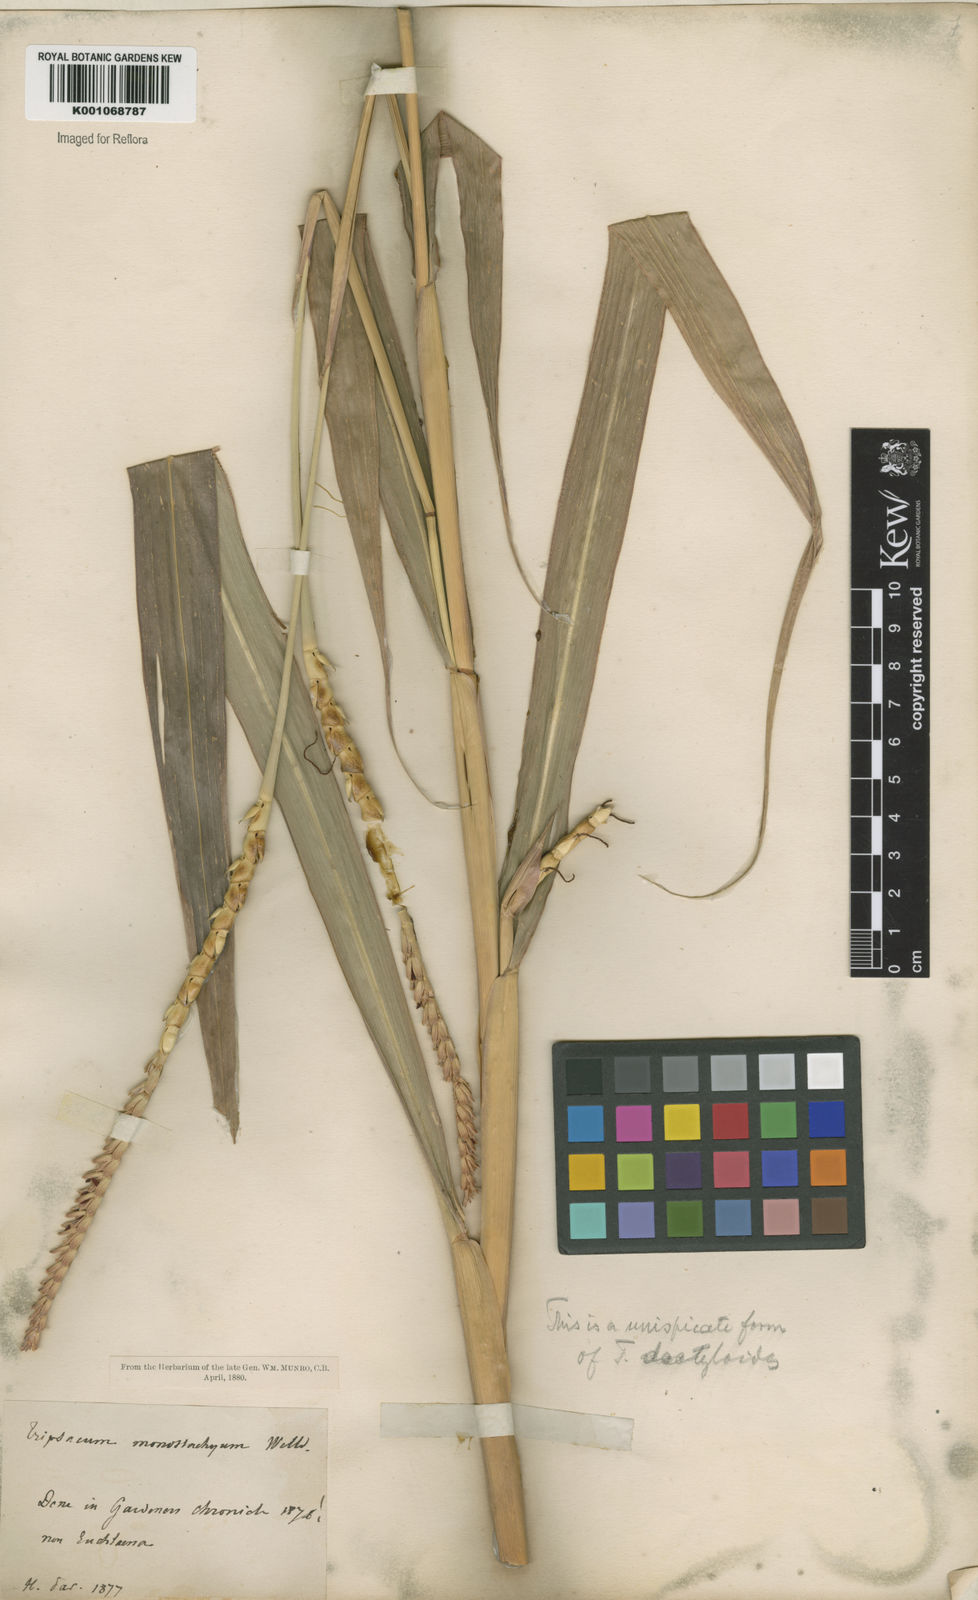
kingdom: Plantae
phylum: Tracheophyta
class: Liliopsida
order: Poales
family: Poaceae
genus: Tripsacum
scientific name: Tripsacum australe
